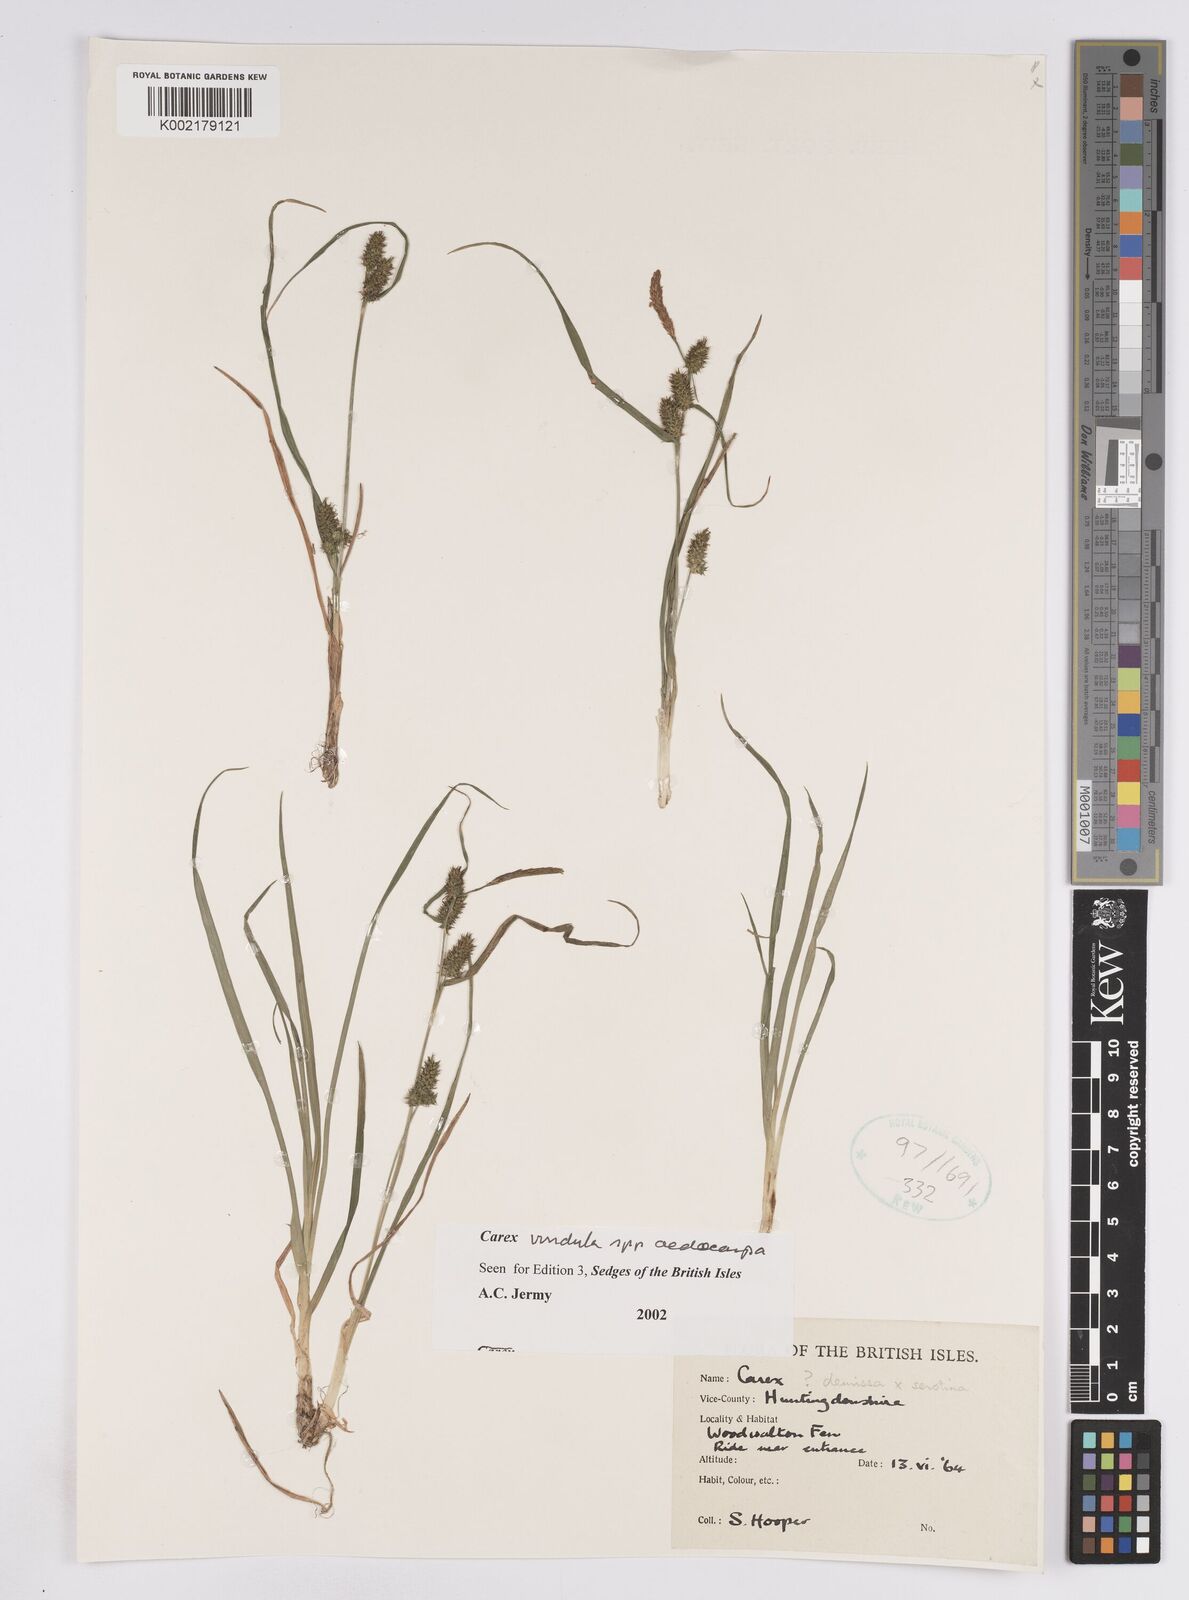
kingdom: Plantae
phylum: Tracheophyta
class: Liliopsida
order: Poales
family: Cyperaceae
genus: Carex
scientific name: Carex demissa
